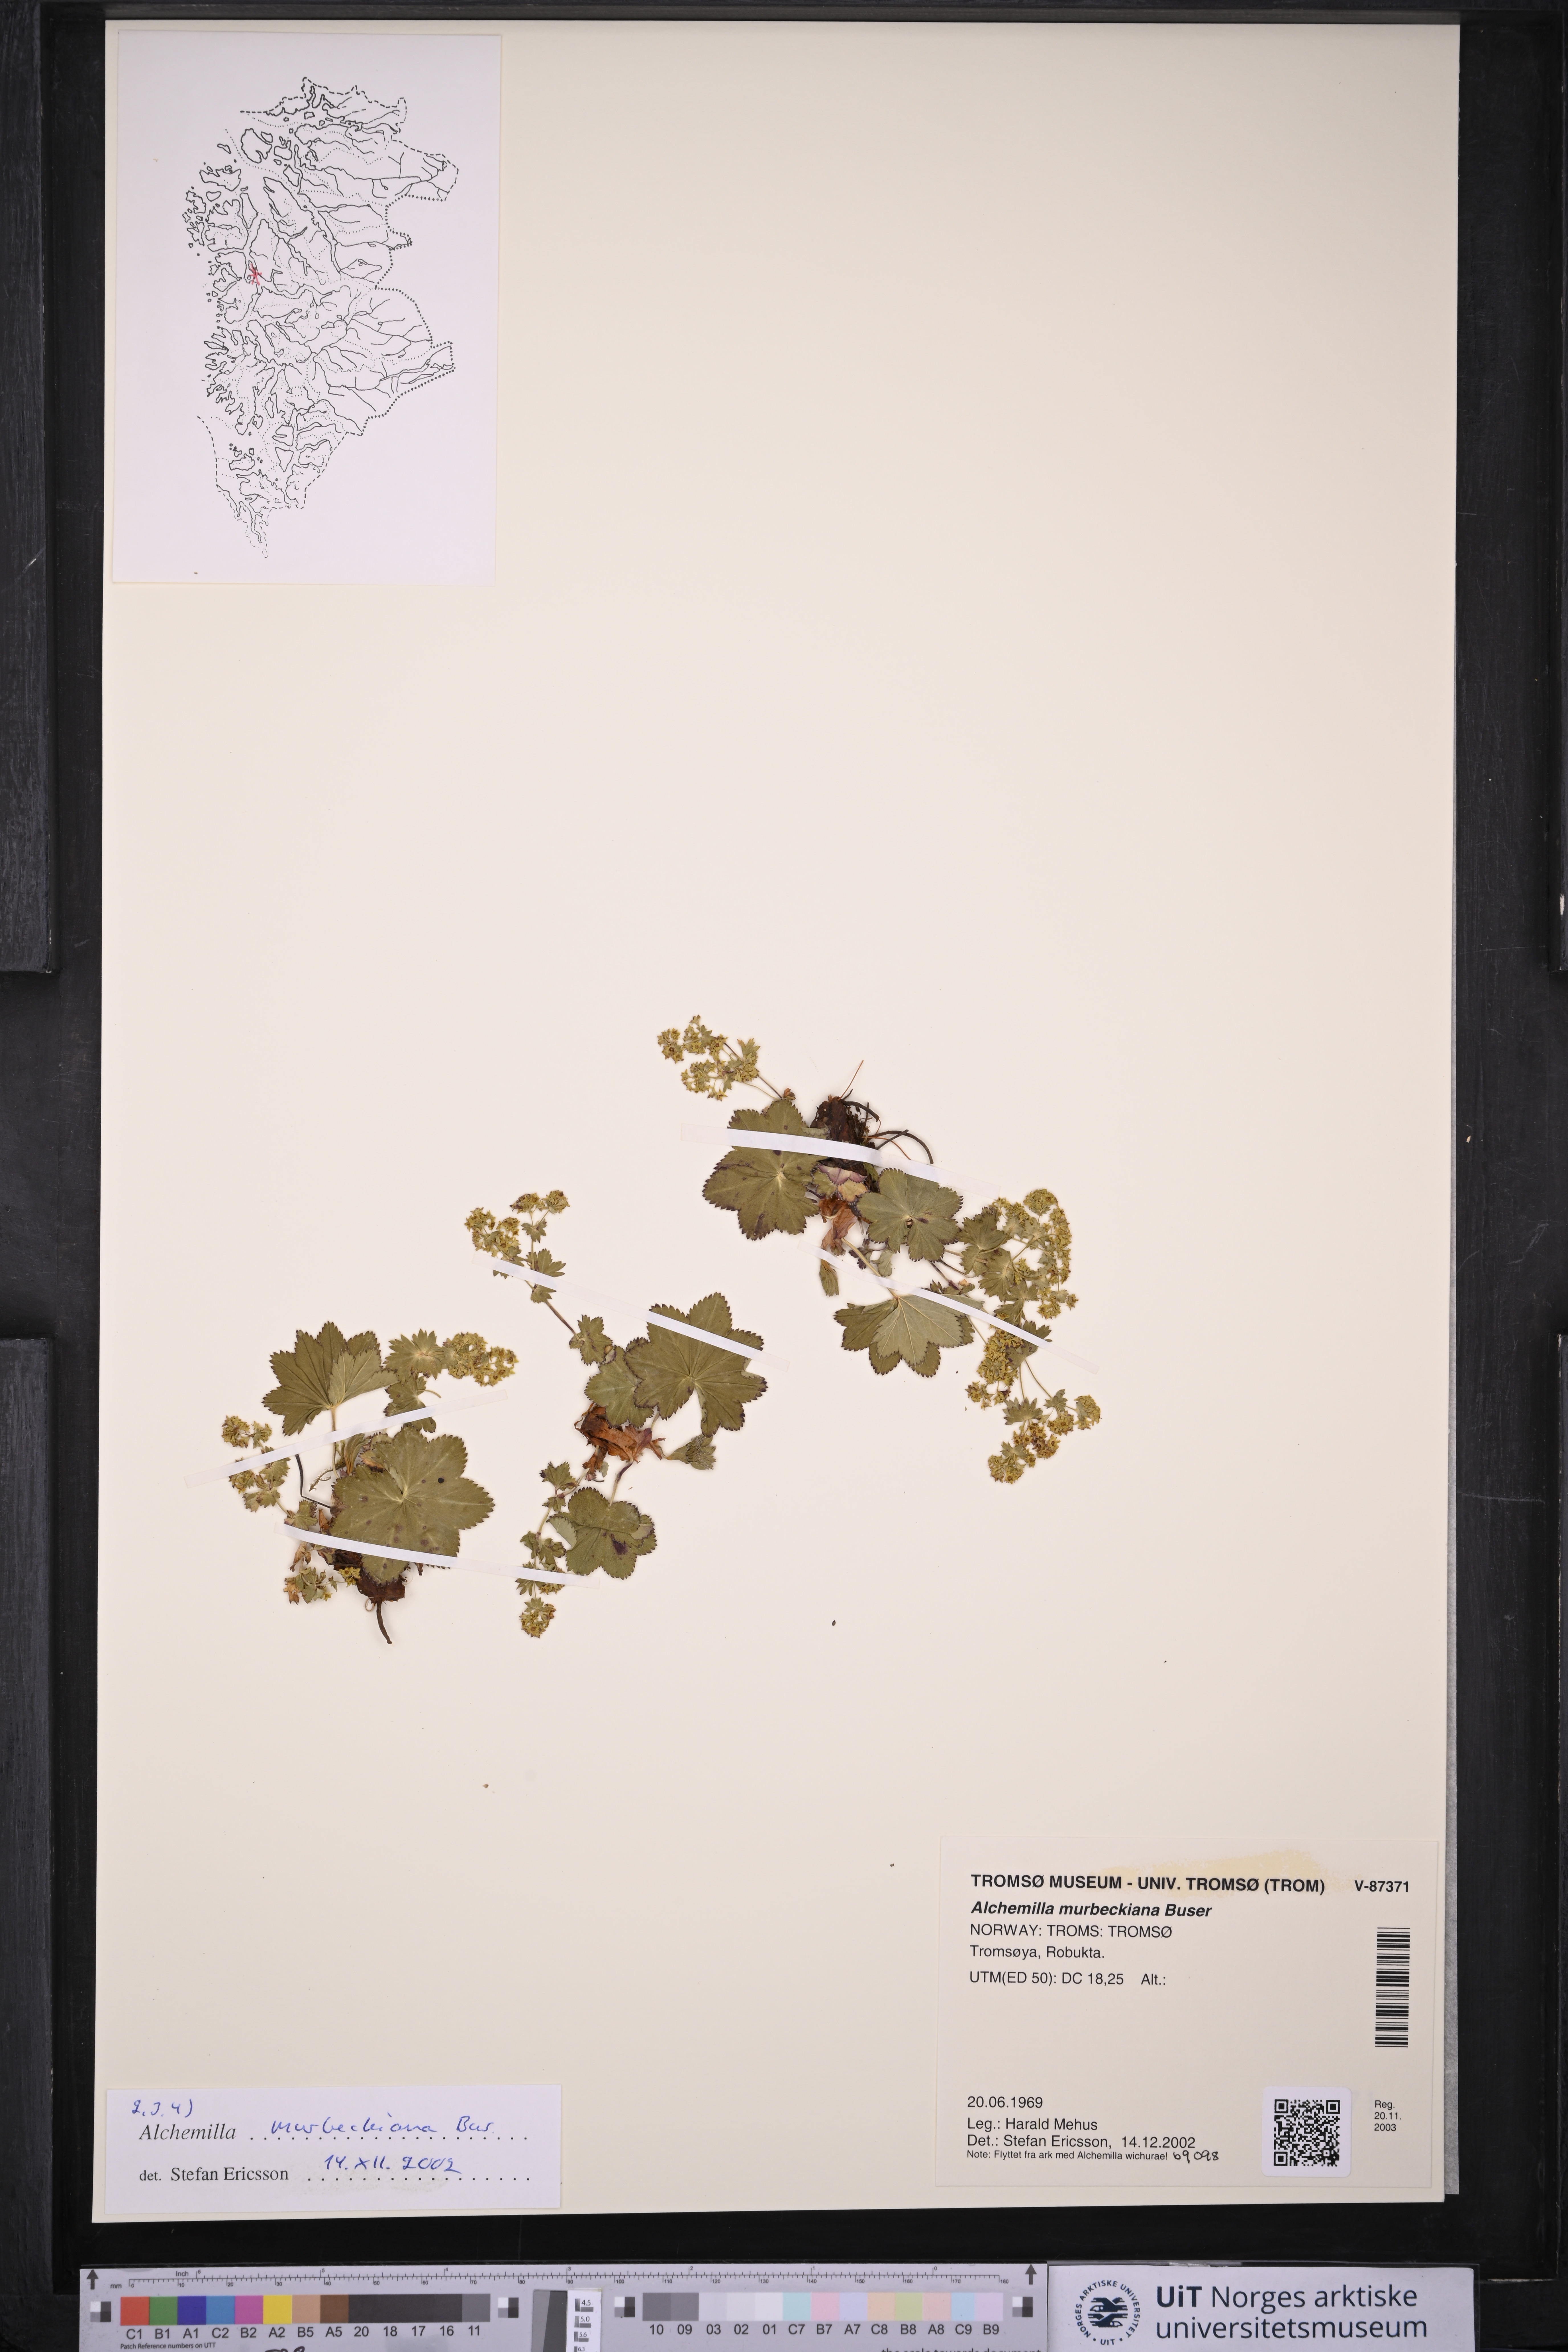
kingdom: Plantae
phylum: Tracheophyta
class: Magnoliopsida
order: Rosales
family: Rosaceae
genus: Alchemilla
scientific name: Alchemilla murbeckiana
